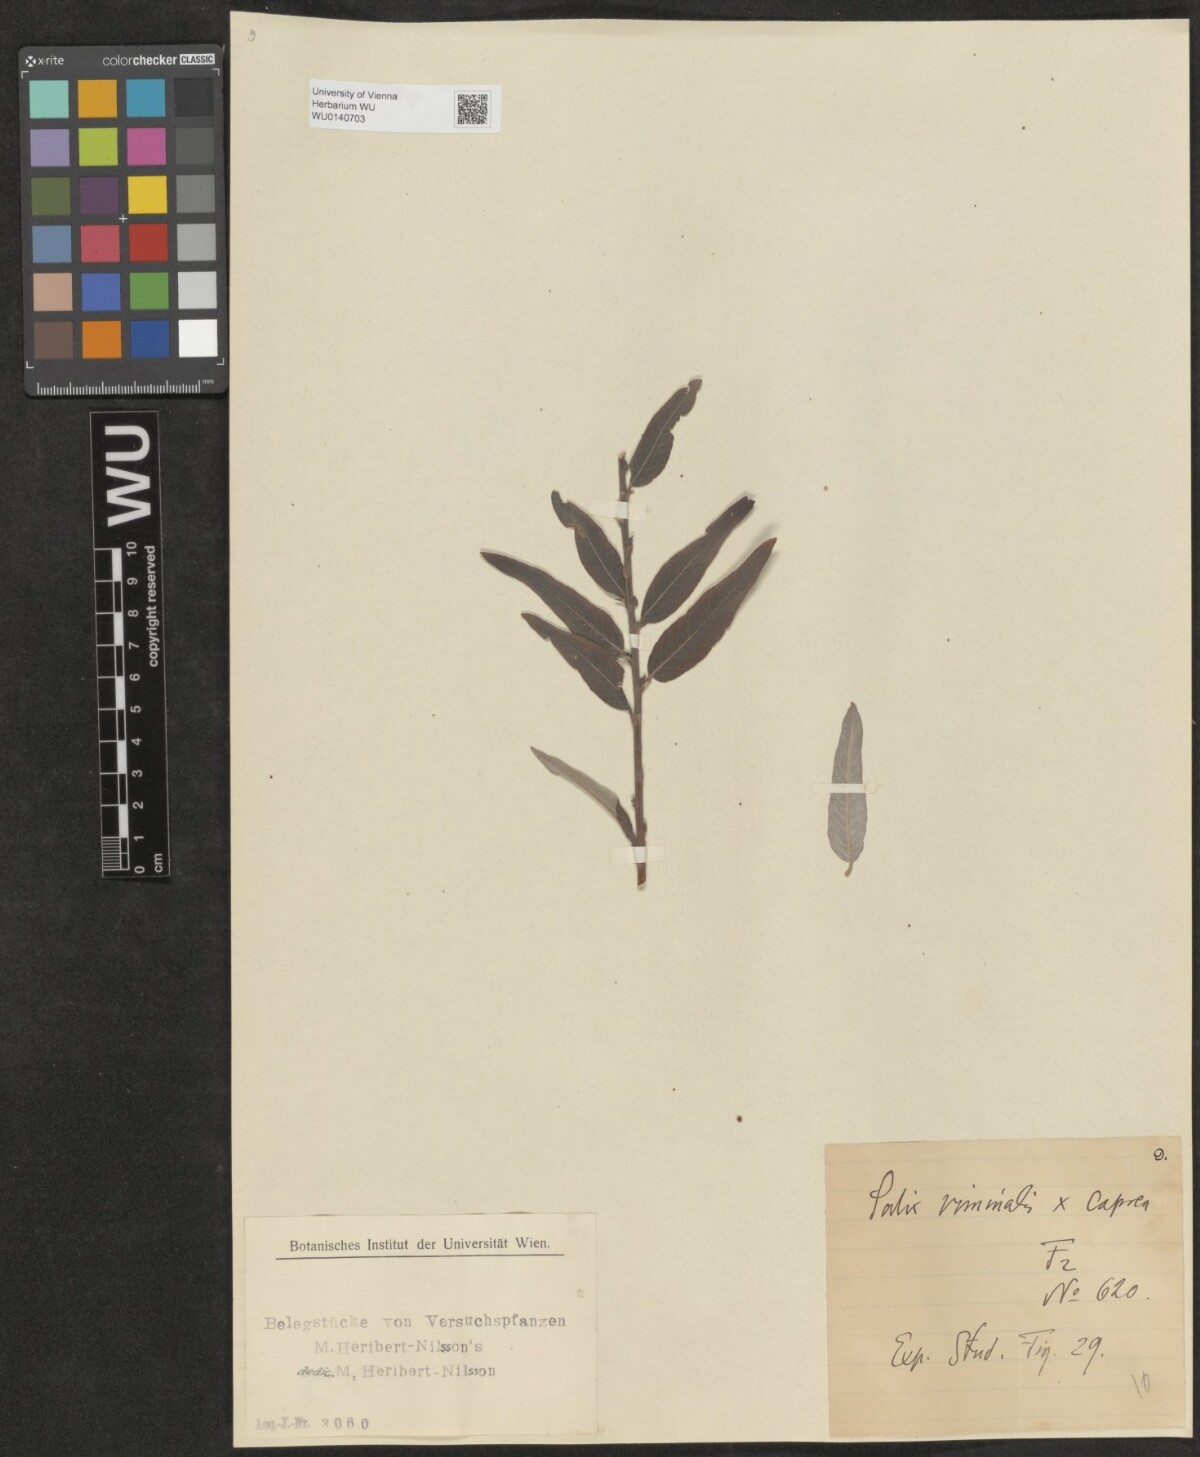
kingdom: Plantae
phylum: Tracheophyta
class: Magnoliopsida
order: Malpighiales
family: Salicaceae
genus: Salix
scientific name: Salix
